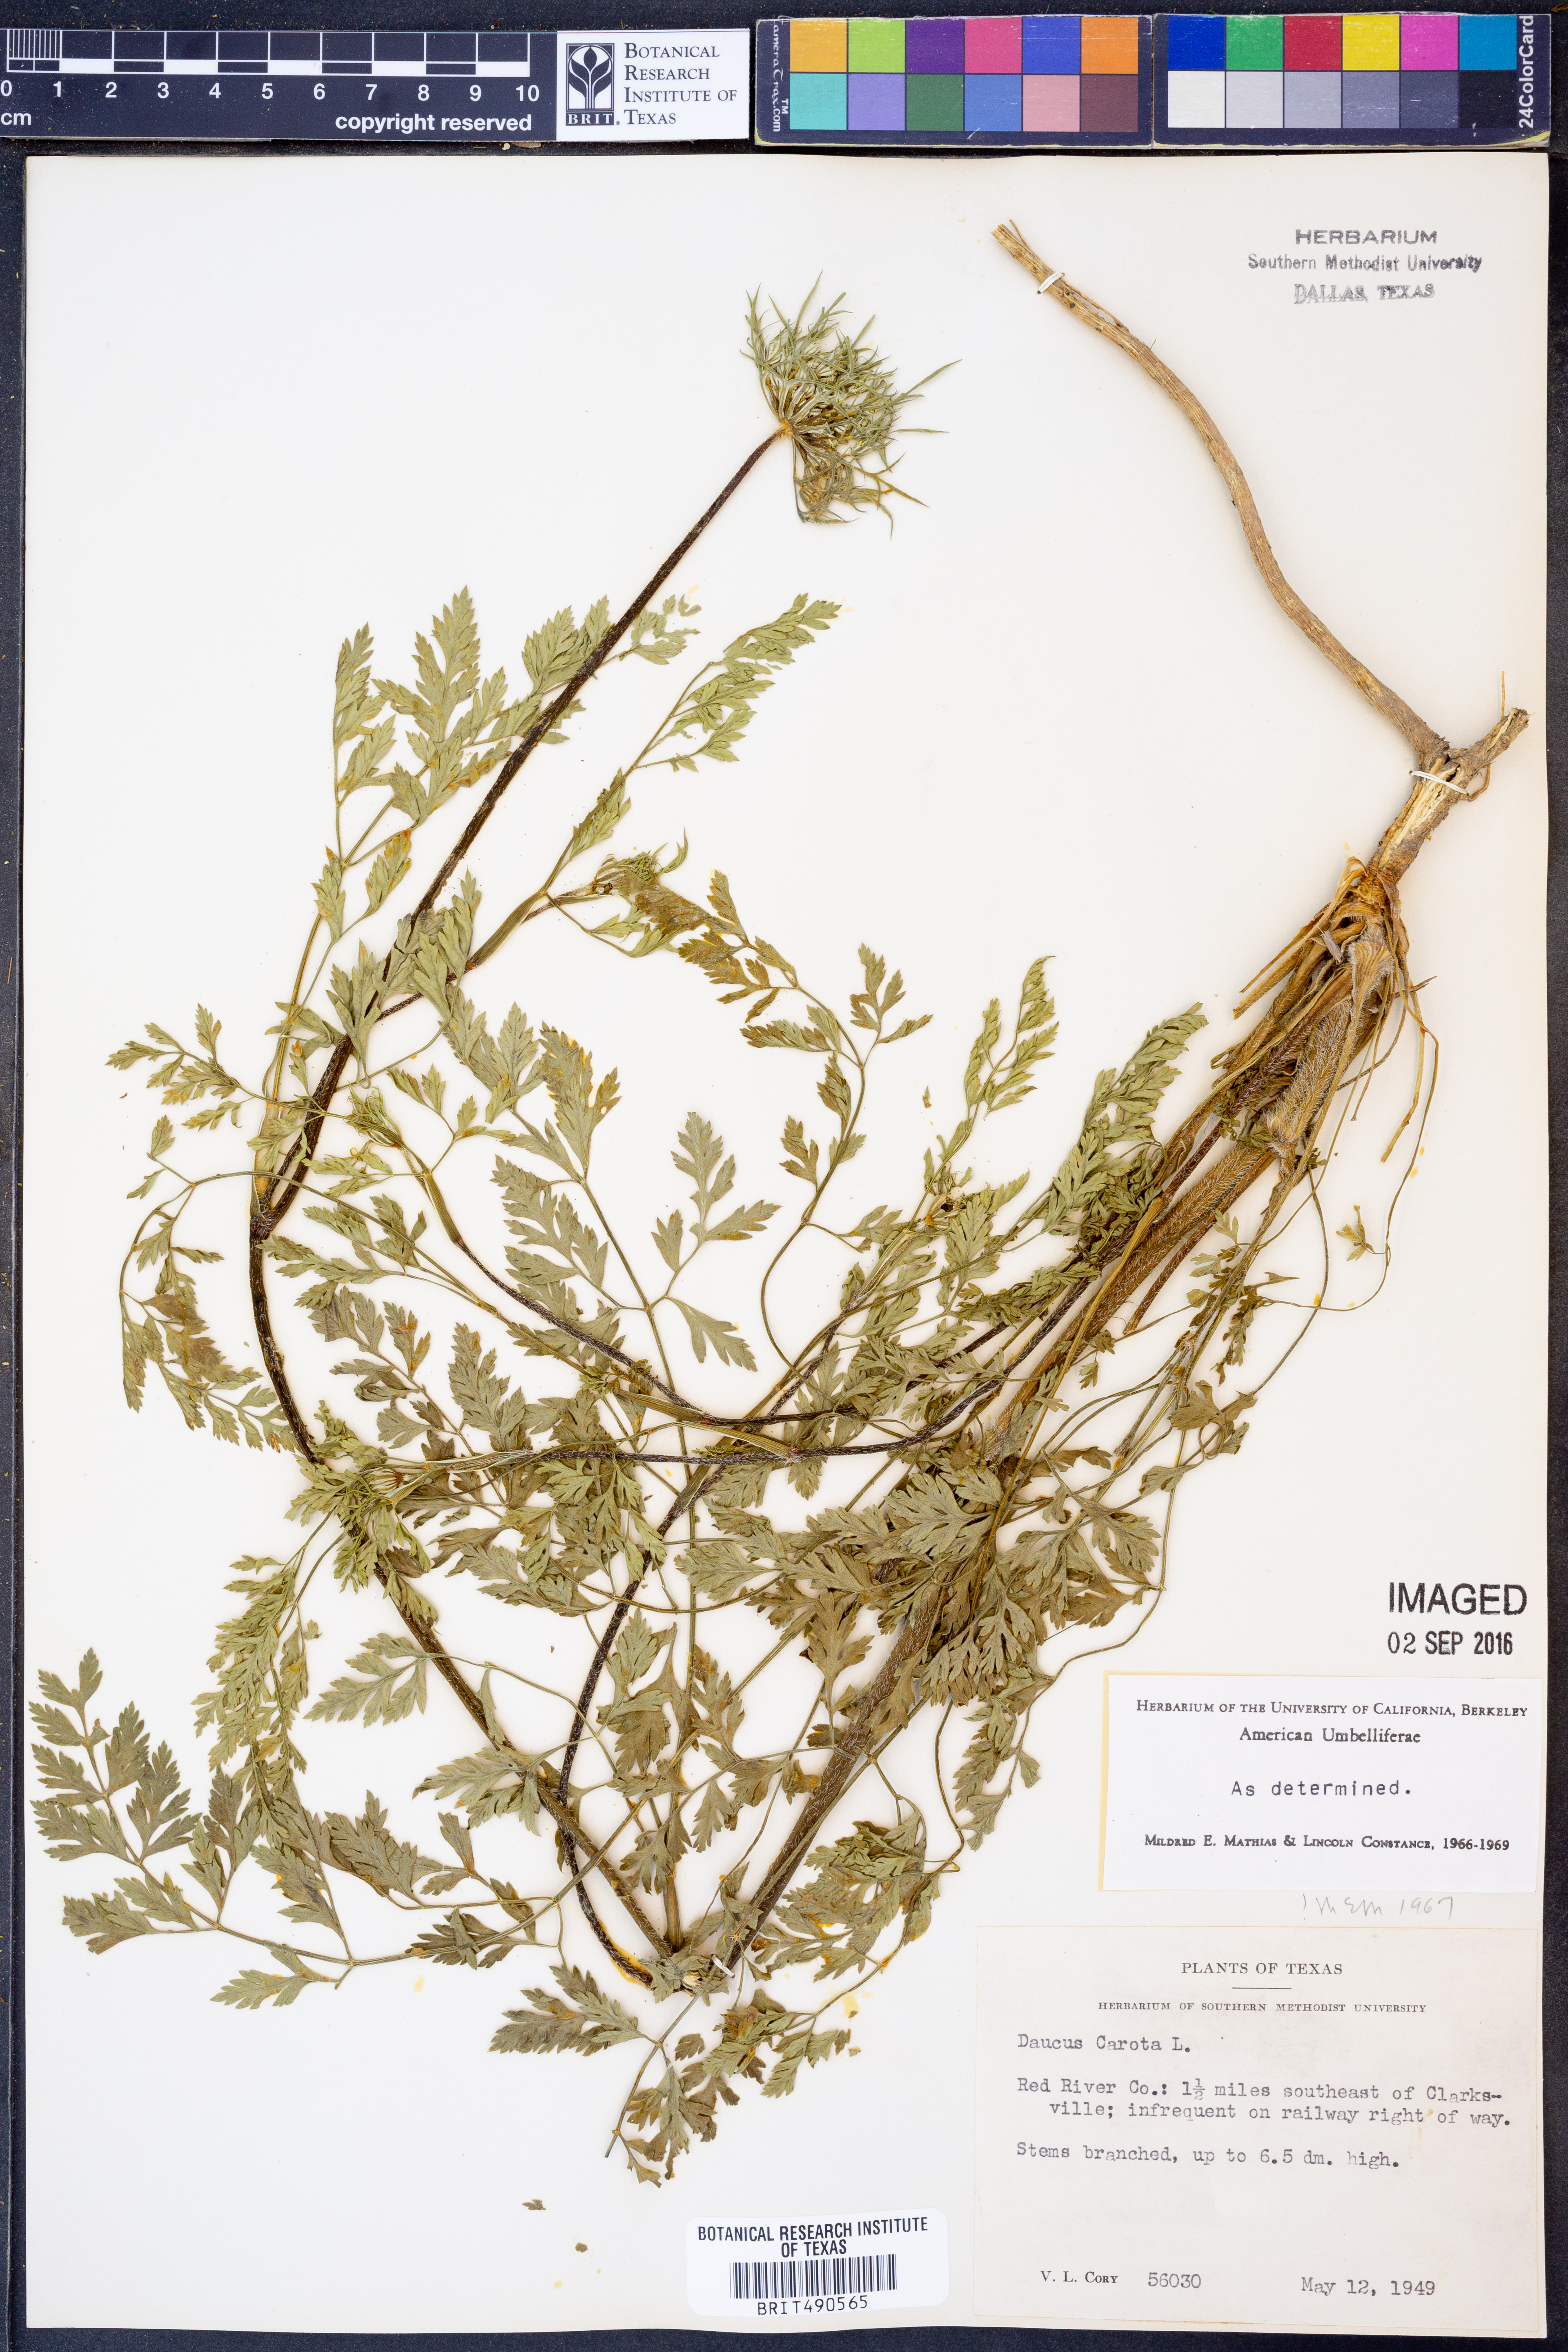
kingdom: Plantae
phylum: Tracheophyta
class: Magnoliopsida
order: Apiales
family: Apiaceae
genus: Daucus
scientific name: Daucus carota
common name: Wild carrot
